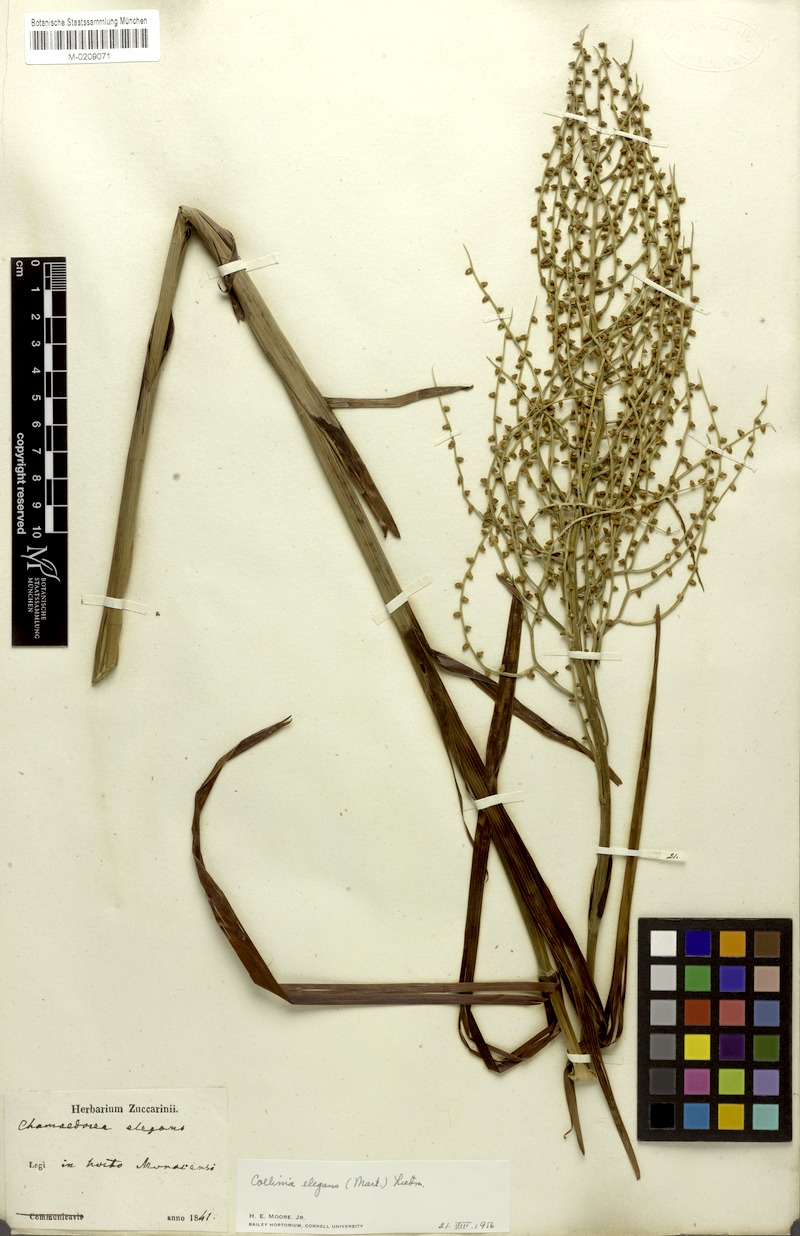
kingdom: Plantae
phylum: Tracheophyta
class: Liliopsida
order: Arecales
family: Arecaceae
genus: Chamaedorea
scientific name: Chamaedorea elegans
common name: Good-luck palm
